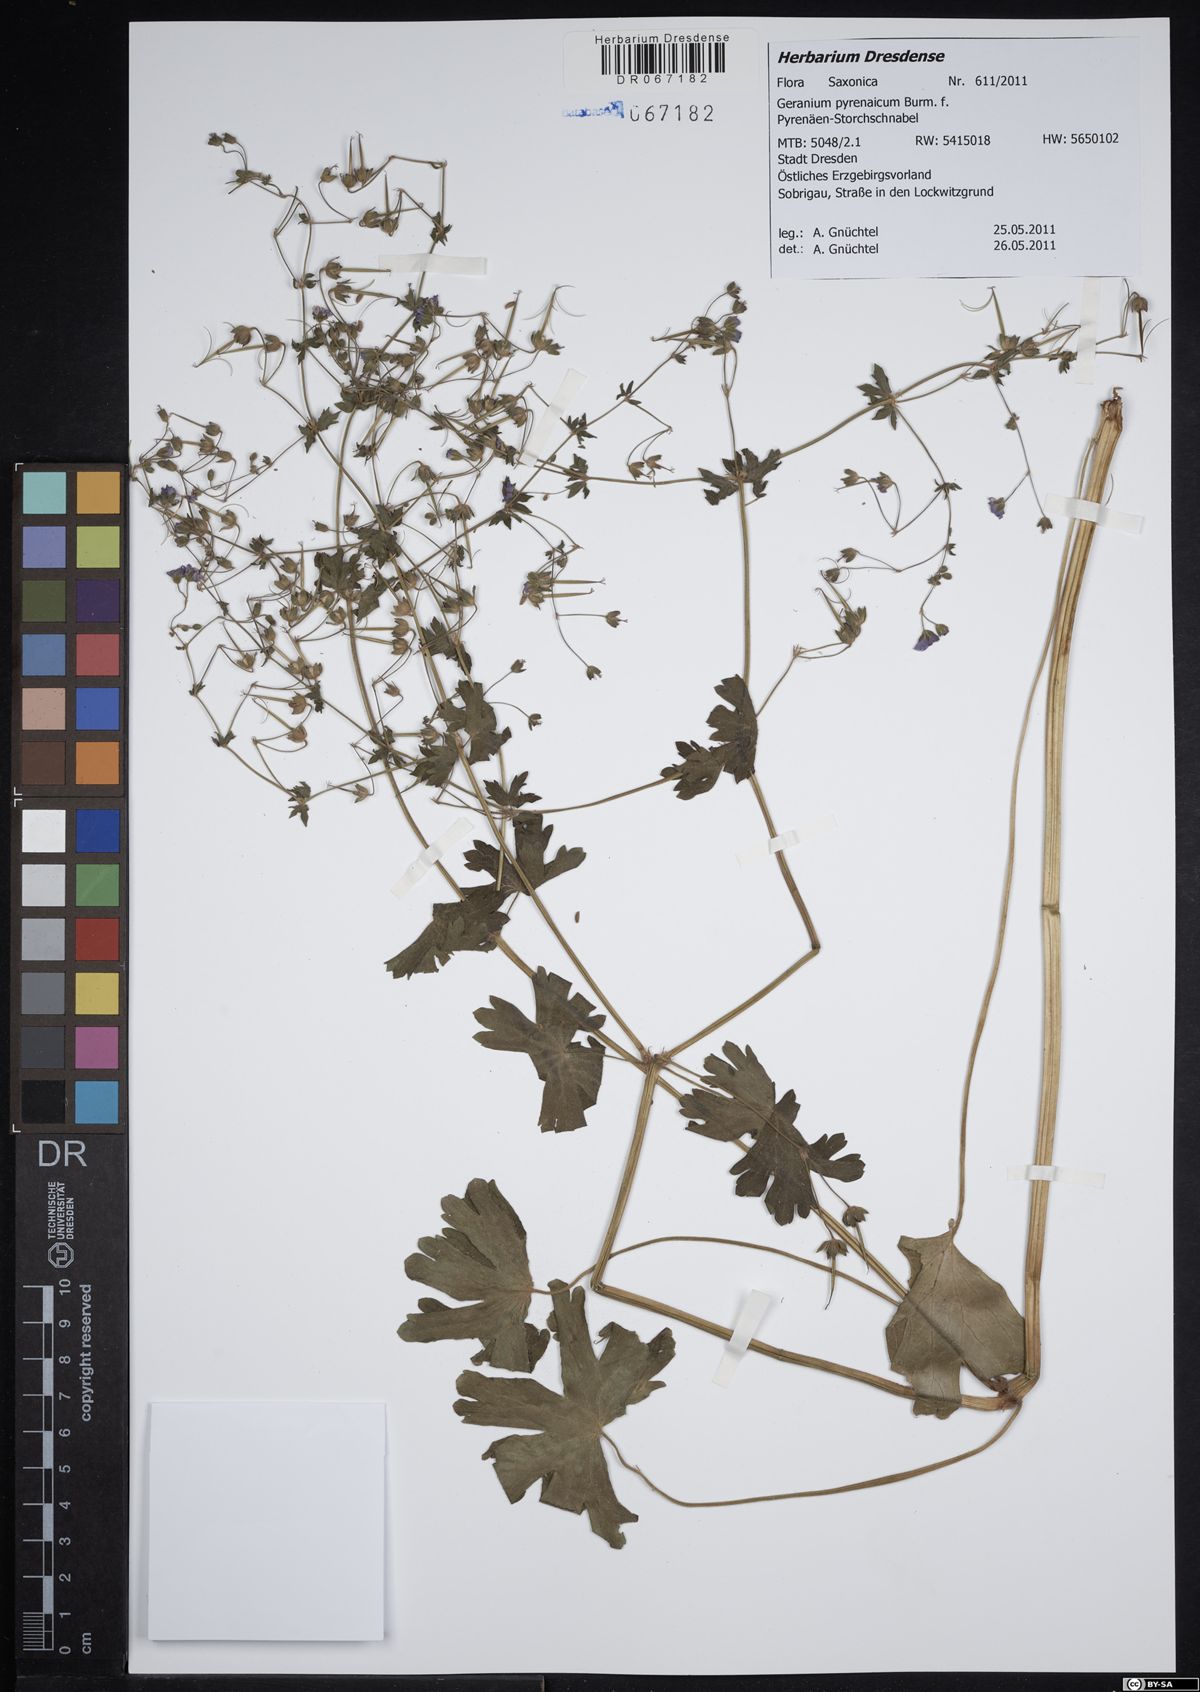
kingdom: Plantae
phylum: Tracheophyta
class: Magnoliopsida
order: Geraniales
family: Geraniaceae
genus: Geranium
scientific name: Geranium pyrenaicum
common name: Hedgerow crane's-bill
